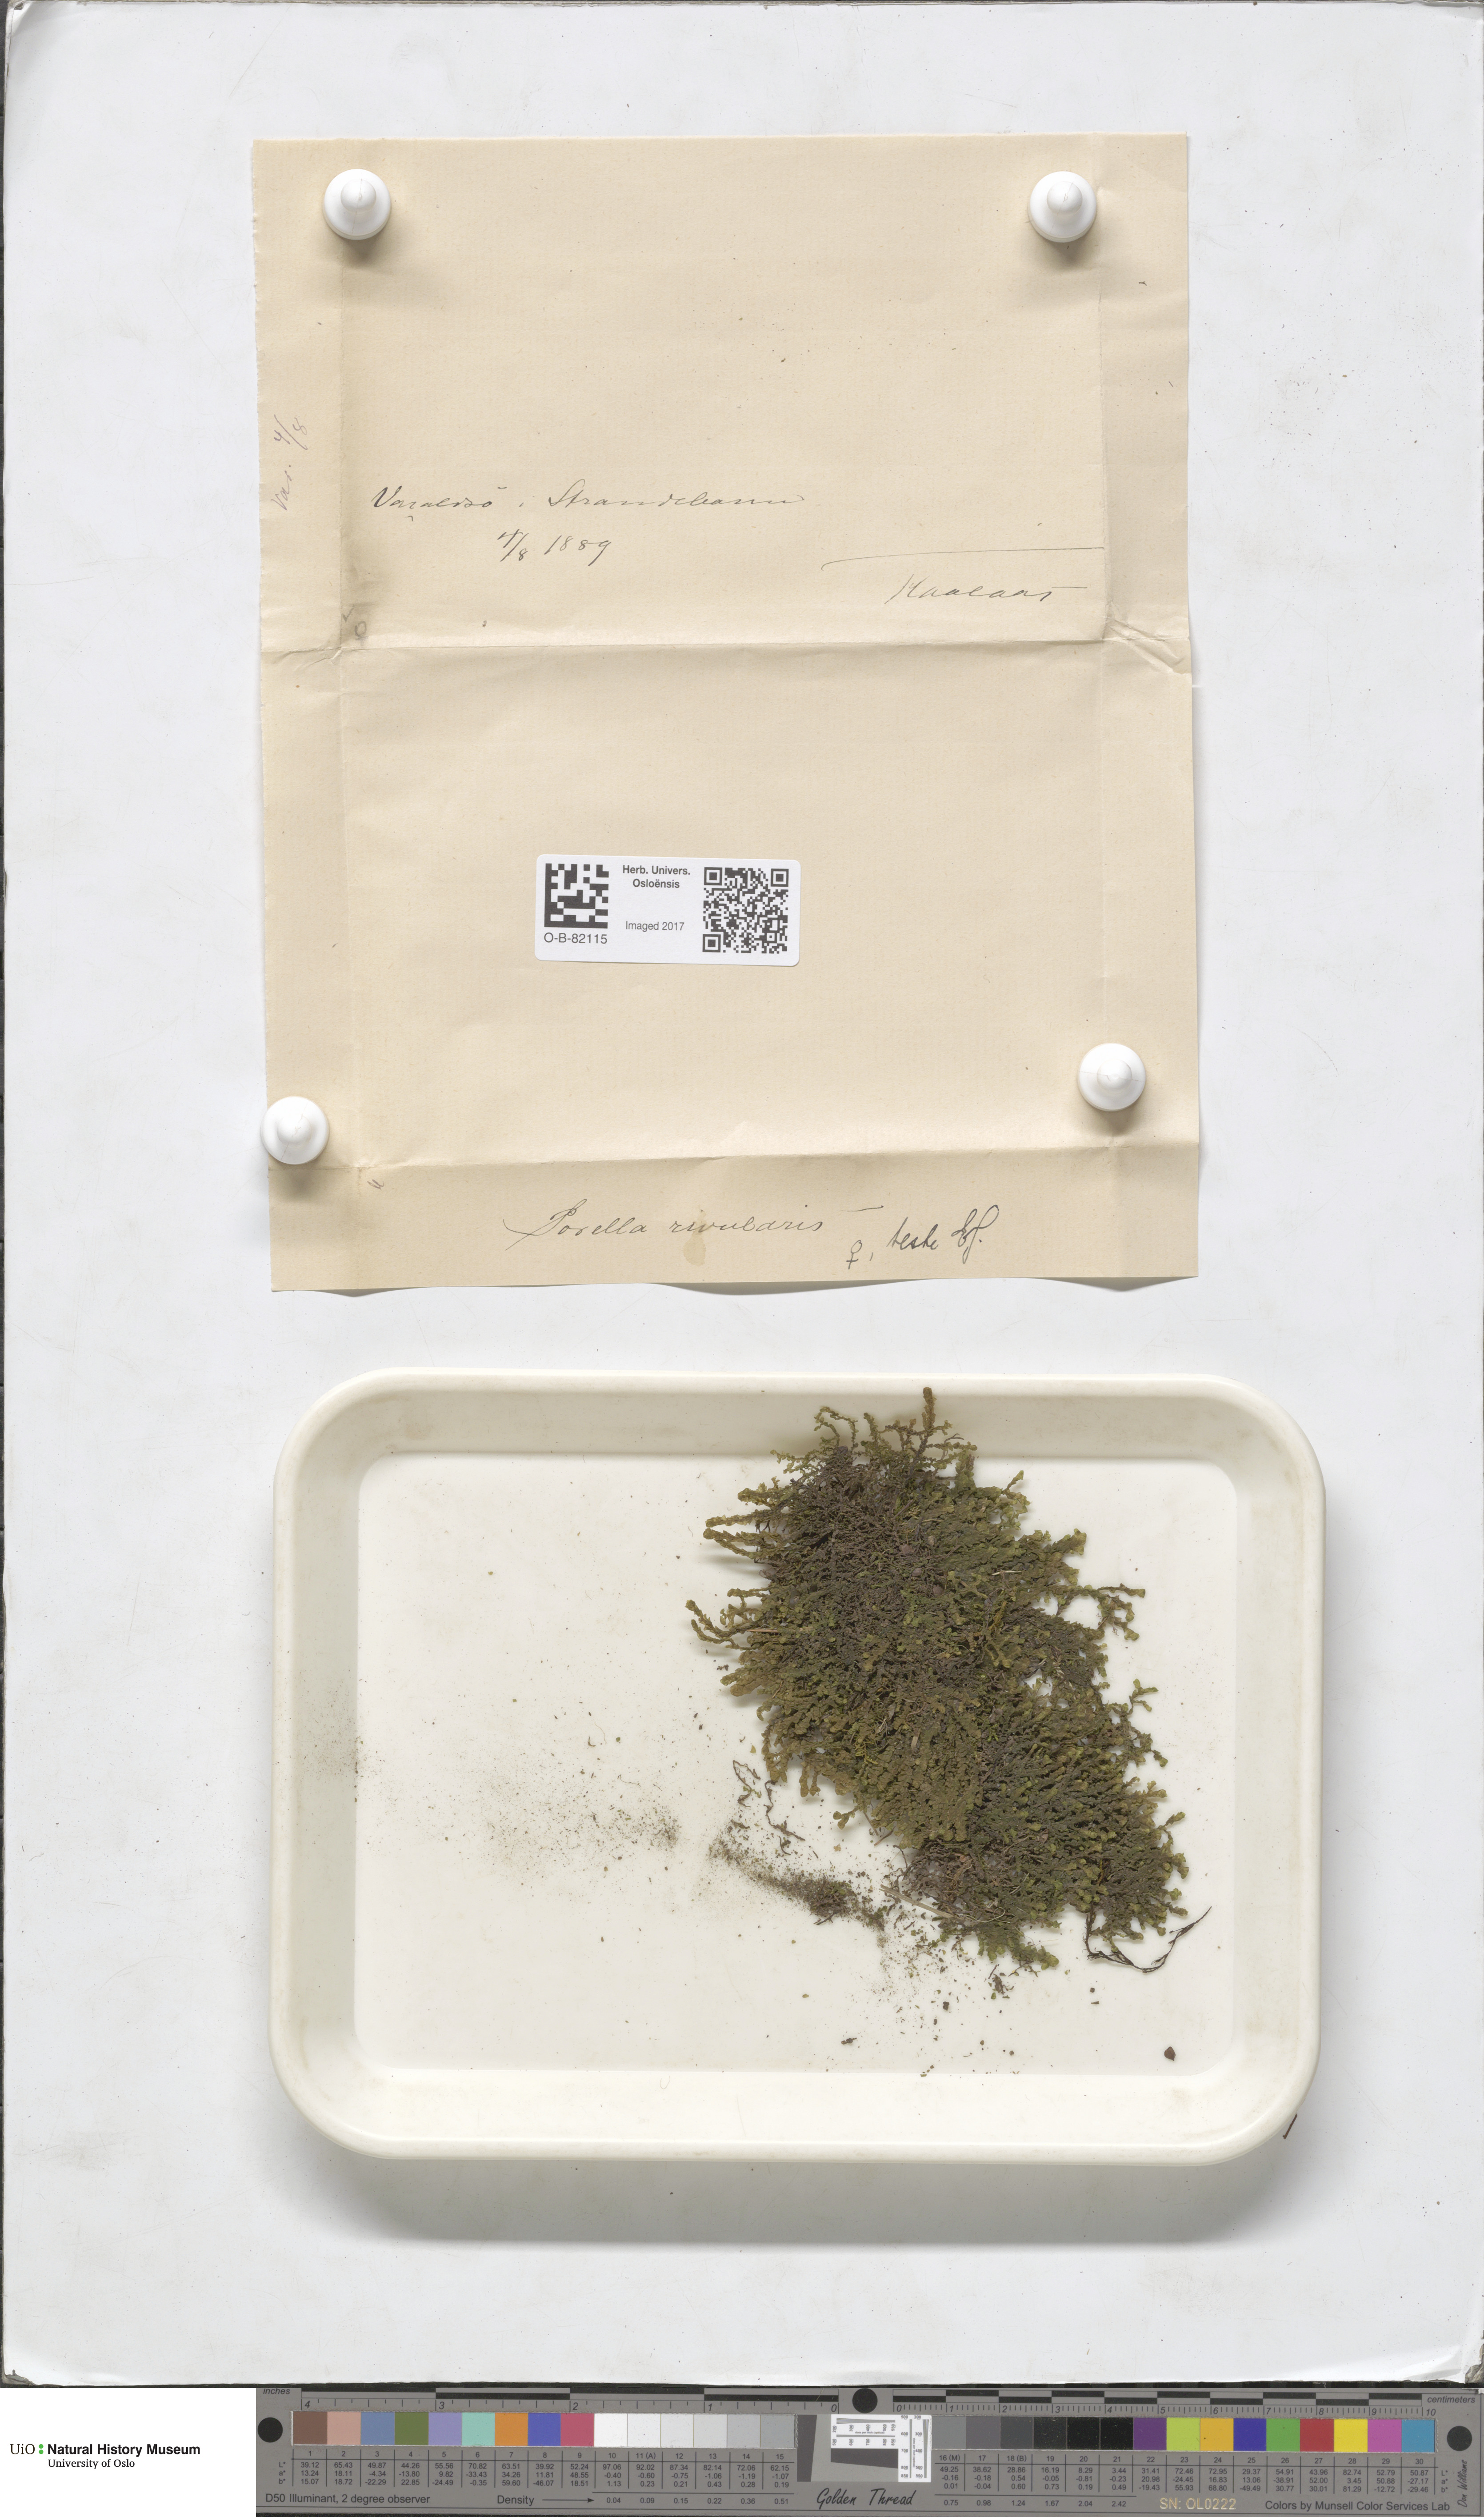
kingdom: Plantae
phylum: Marchantiophyta
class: Jungermanniopsida
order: Porellales
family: Porellaceae
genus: Porella
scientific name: Porella cordaeana
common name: Cliff scalewort
